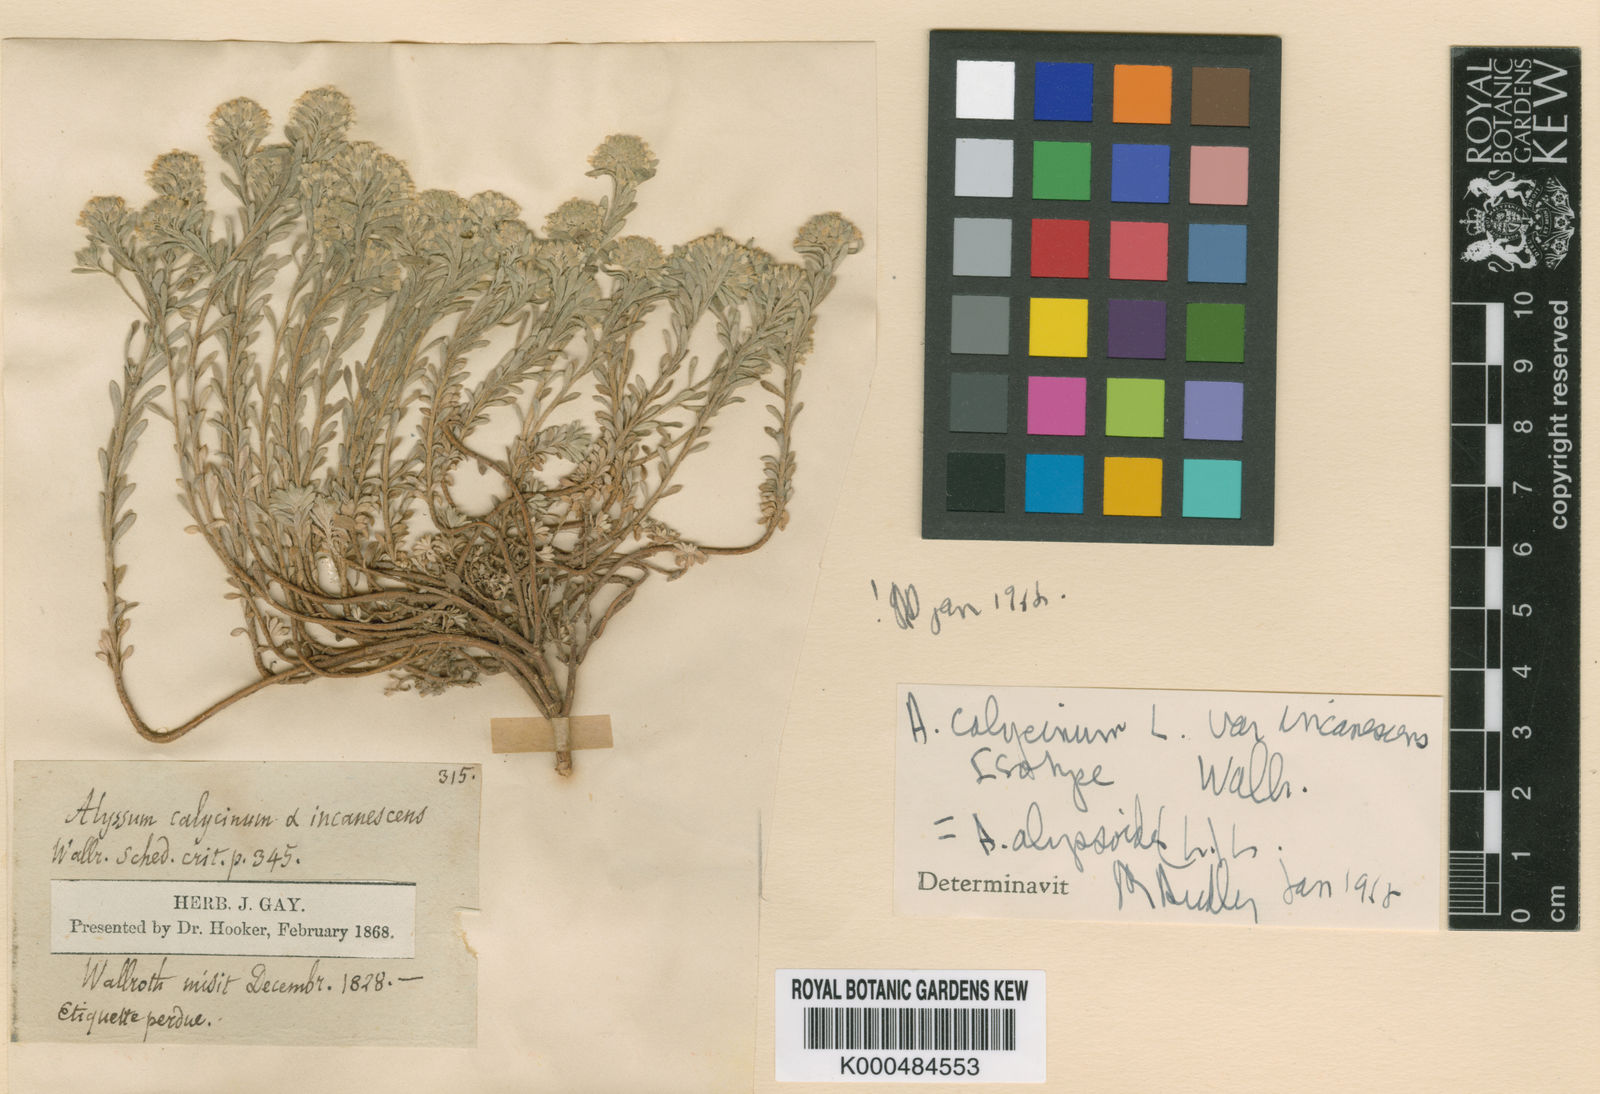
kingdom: Plantae
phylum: Tracheophyta
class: Magnoliopsida
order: Brassicales
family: Brassicaceae
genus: Alyssum
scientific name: Alyssum alyssoides
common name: Small alison
